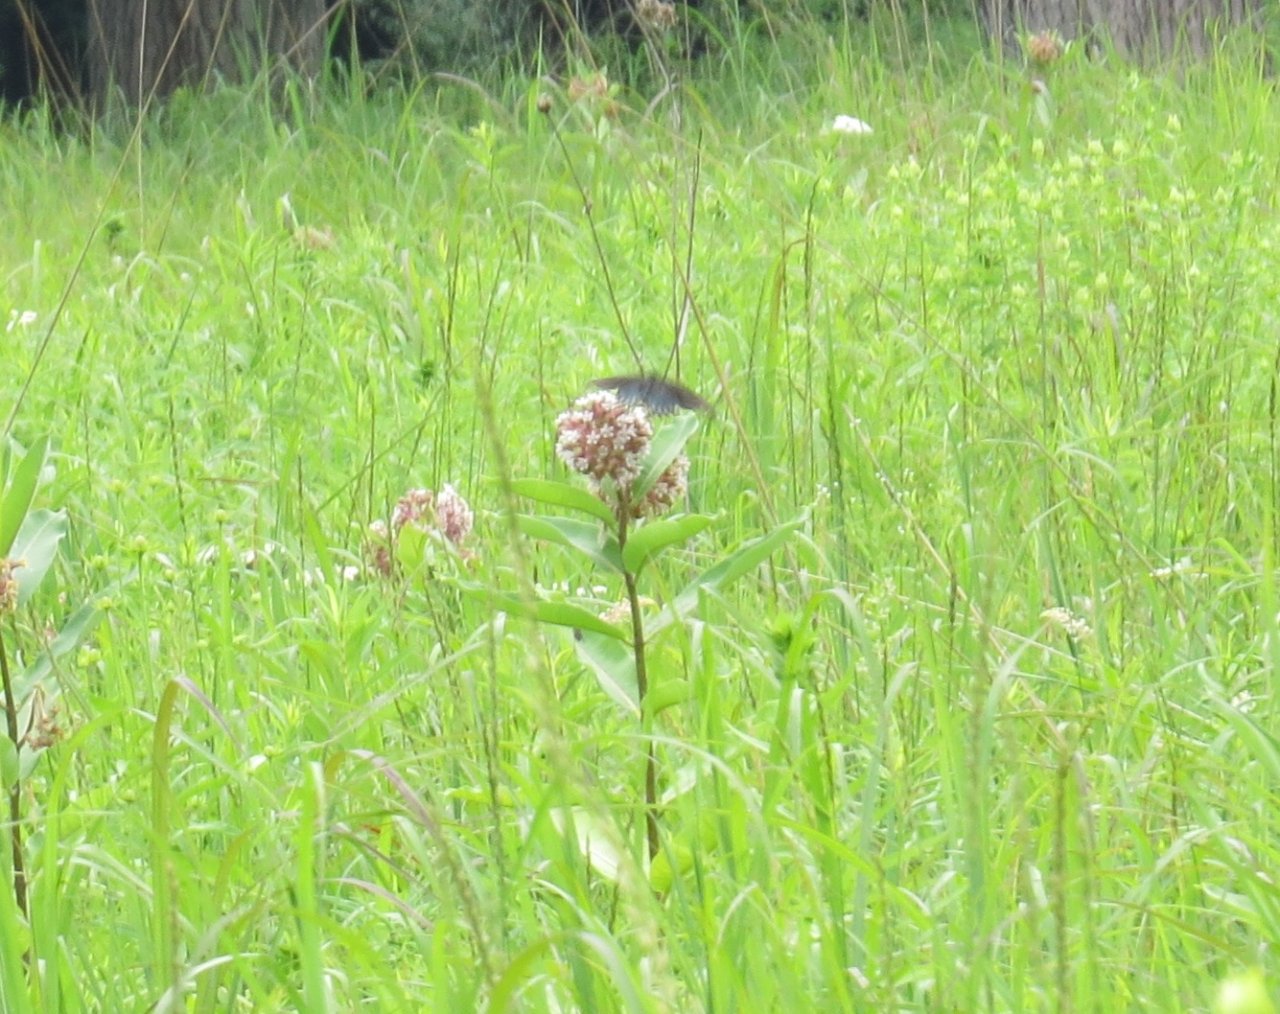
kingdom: Animalia
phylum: Arthropoda
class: Insecta
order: Lepidoptera
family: Papilionidae
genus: Battus
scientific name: Battus philenor
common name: Pipevine Swallowtail
